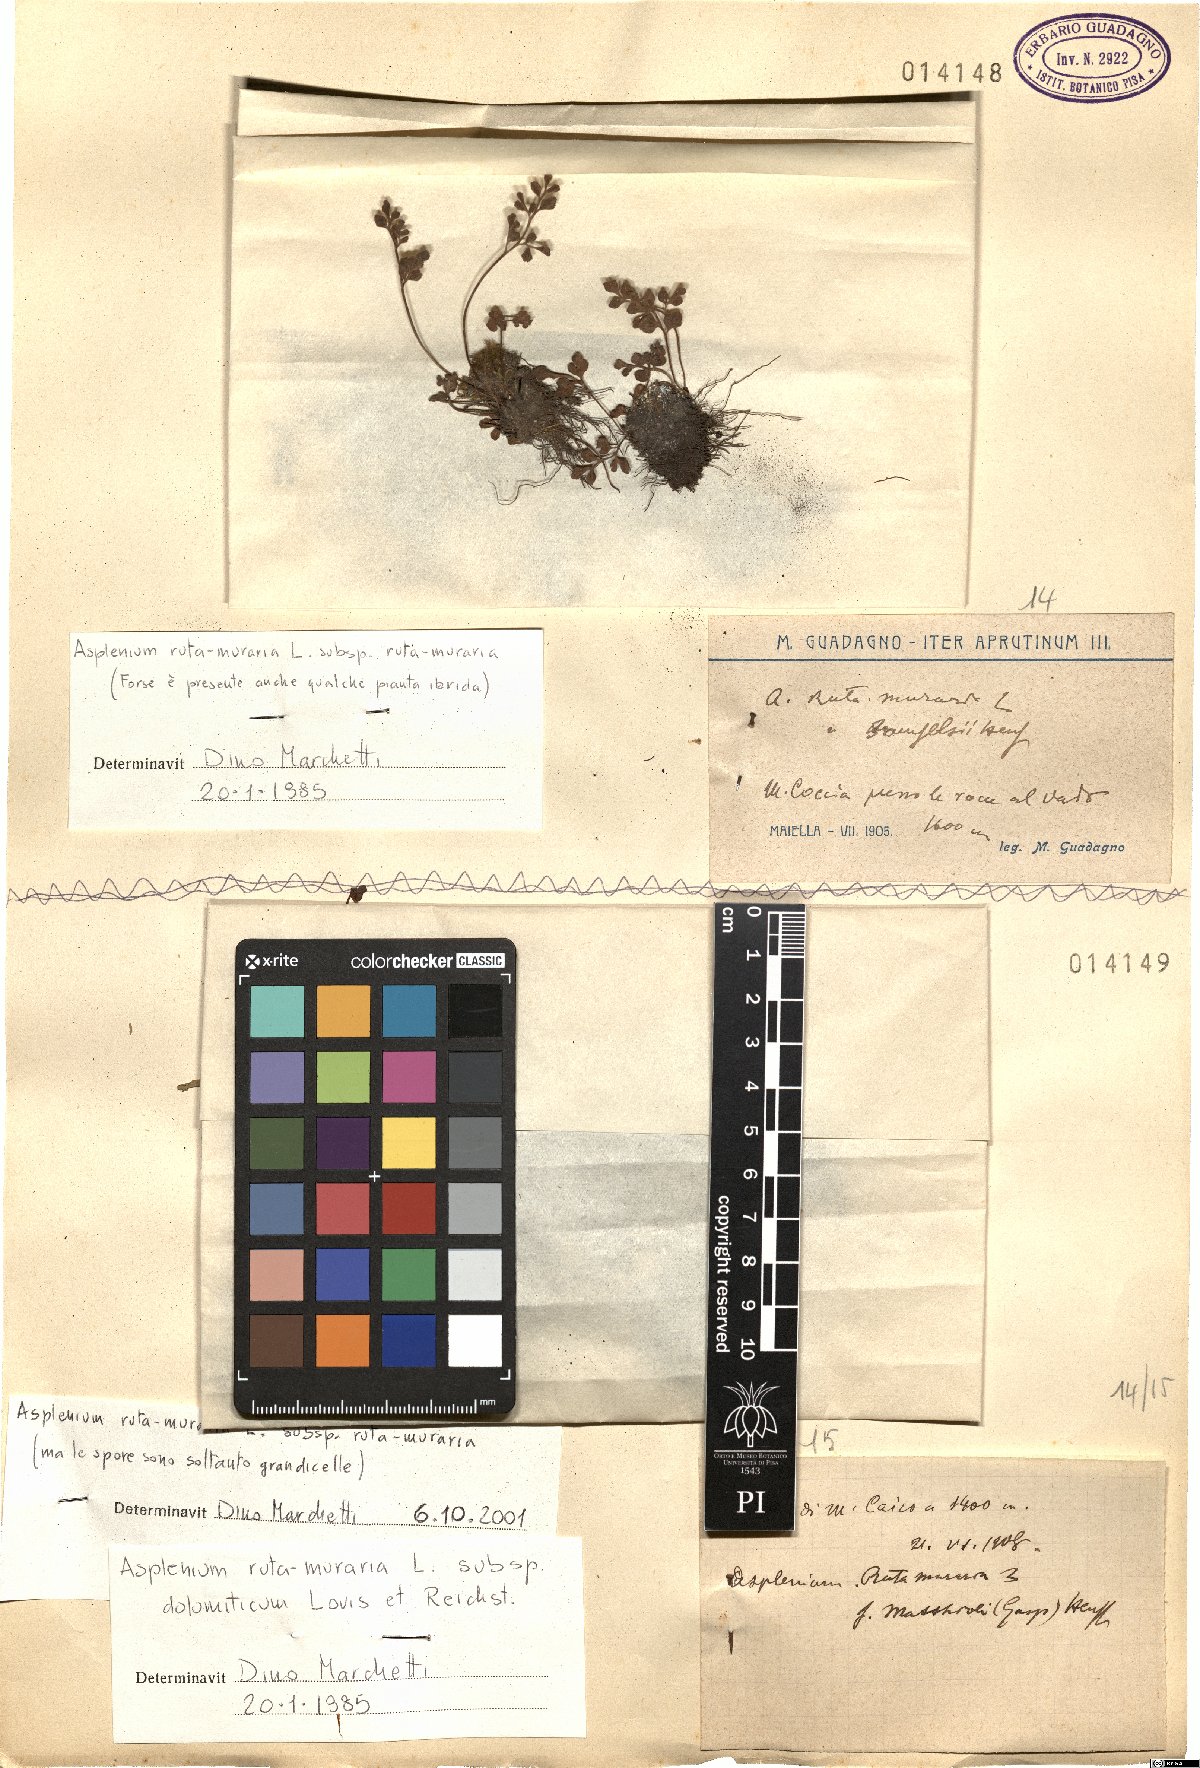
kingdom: Plantae
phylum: Tracheophyta
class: Polypodiopsida
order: Polypodiales
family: Aspleniaceae
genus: Asplenium
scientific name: Asplenium ruta-muraria
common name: Wall-rue
